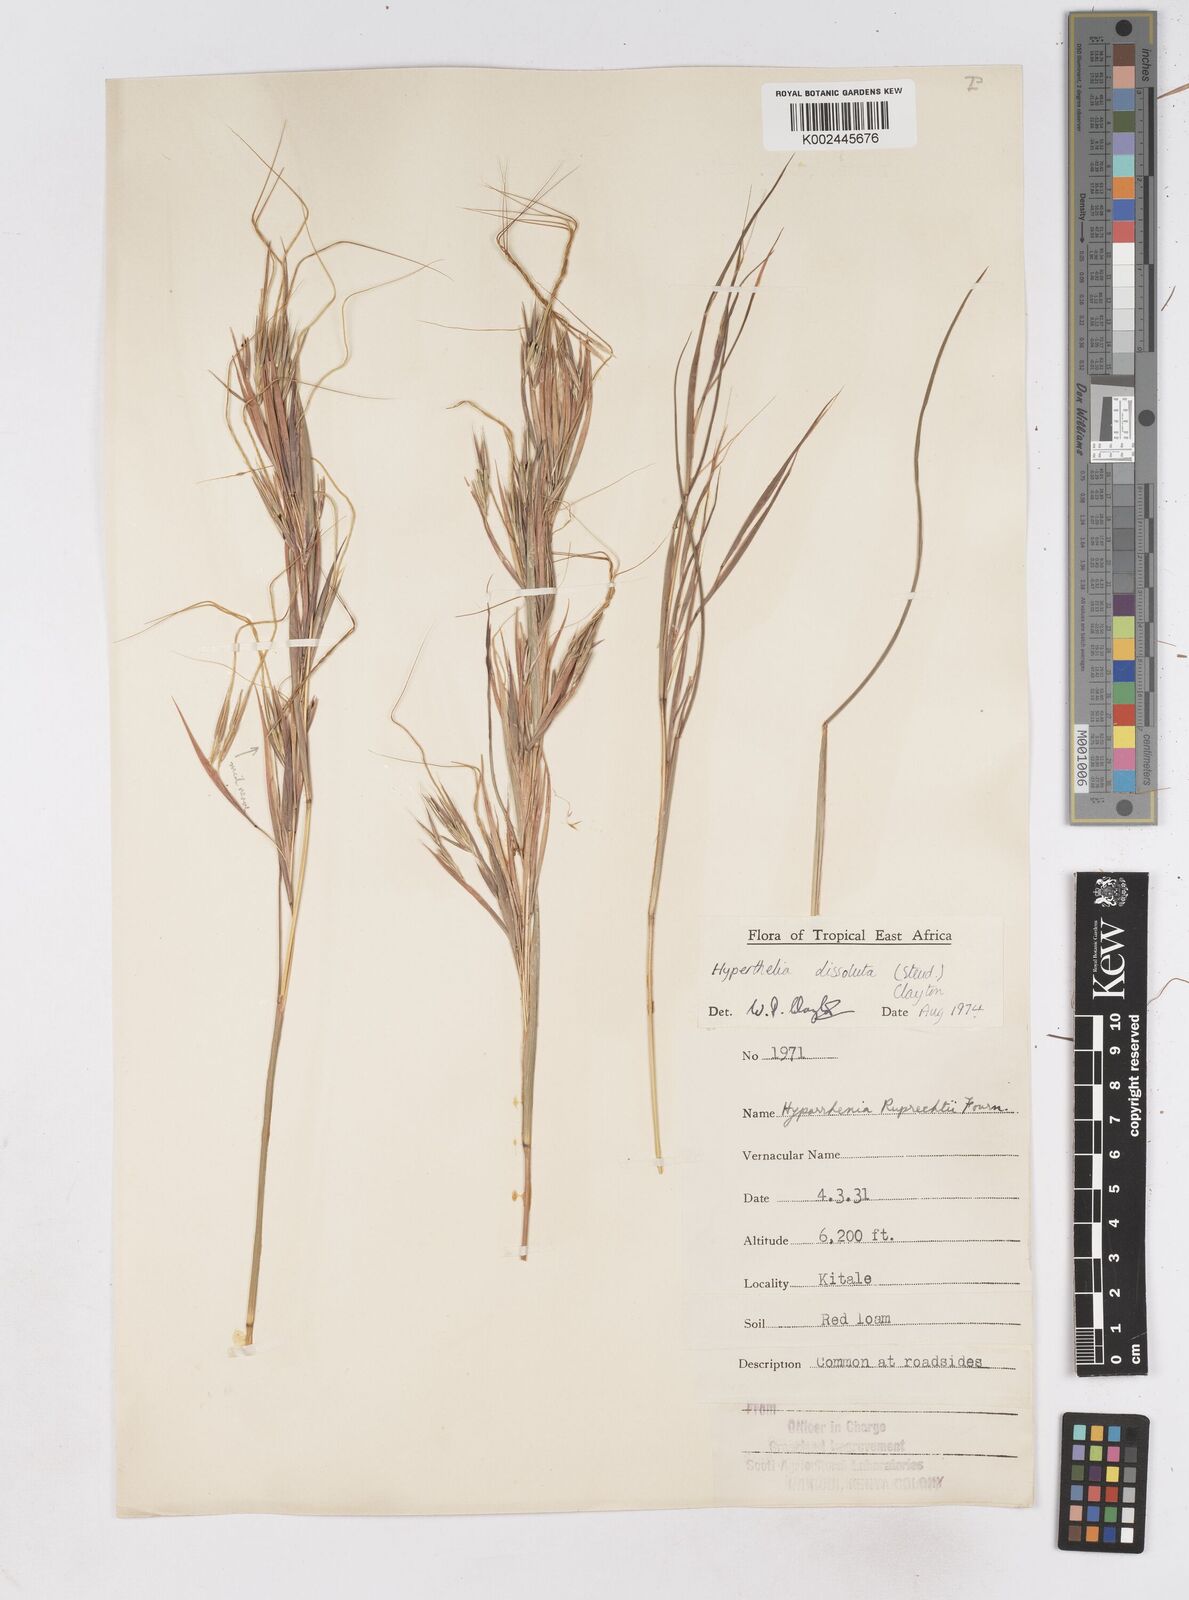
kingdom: Plantae
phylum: Tracheophyta
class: Liliopsida
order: Poales
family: Poaceae
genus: Hyperthelia
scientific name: Hyperthelia dissoluta
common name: Yellow thatching grass
